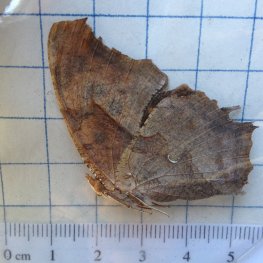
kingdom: Animalia
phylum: Arthropoda
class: Insecta
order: Lepidoptera
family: Nymphalidae
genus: Polygonia
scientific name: Polygonia interrogationis
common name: Question Mark
